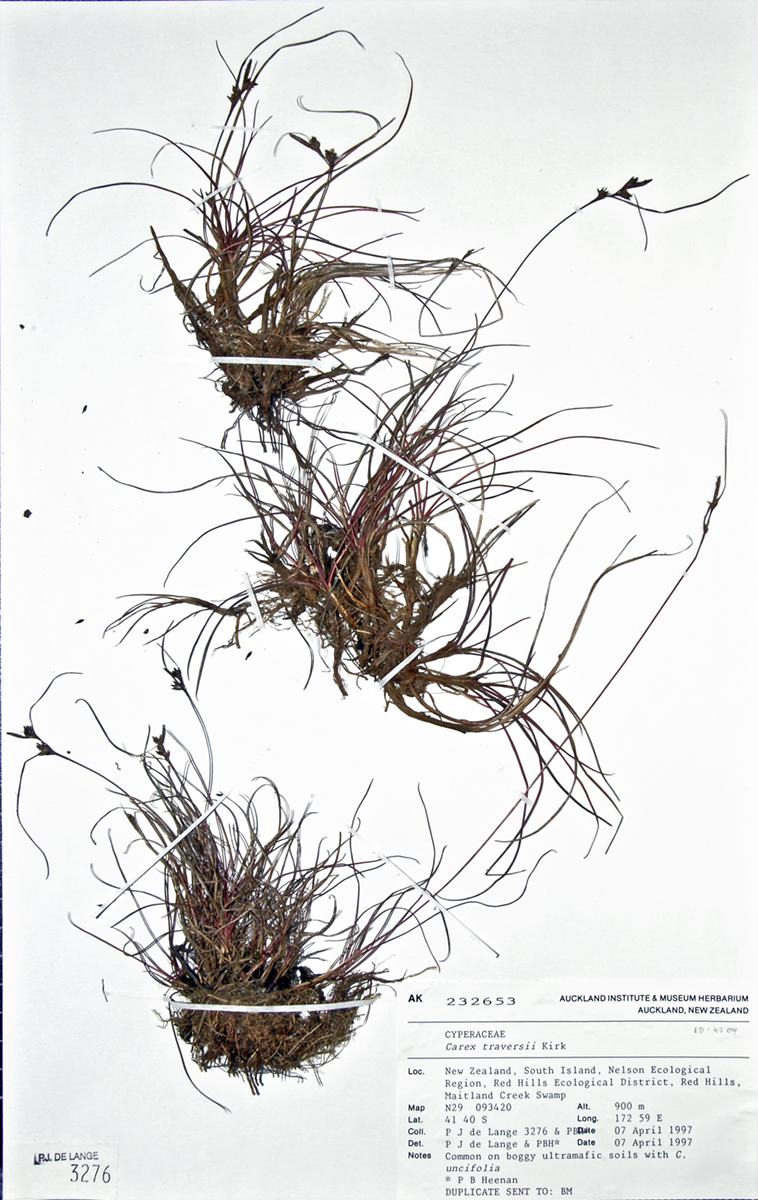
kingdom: Plantae
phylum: Tracheophyta
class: Liliopsida
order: Poales
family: Cyperaceae
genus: Carex
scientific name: Carex traversii
